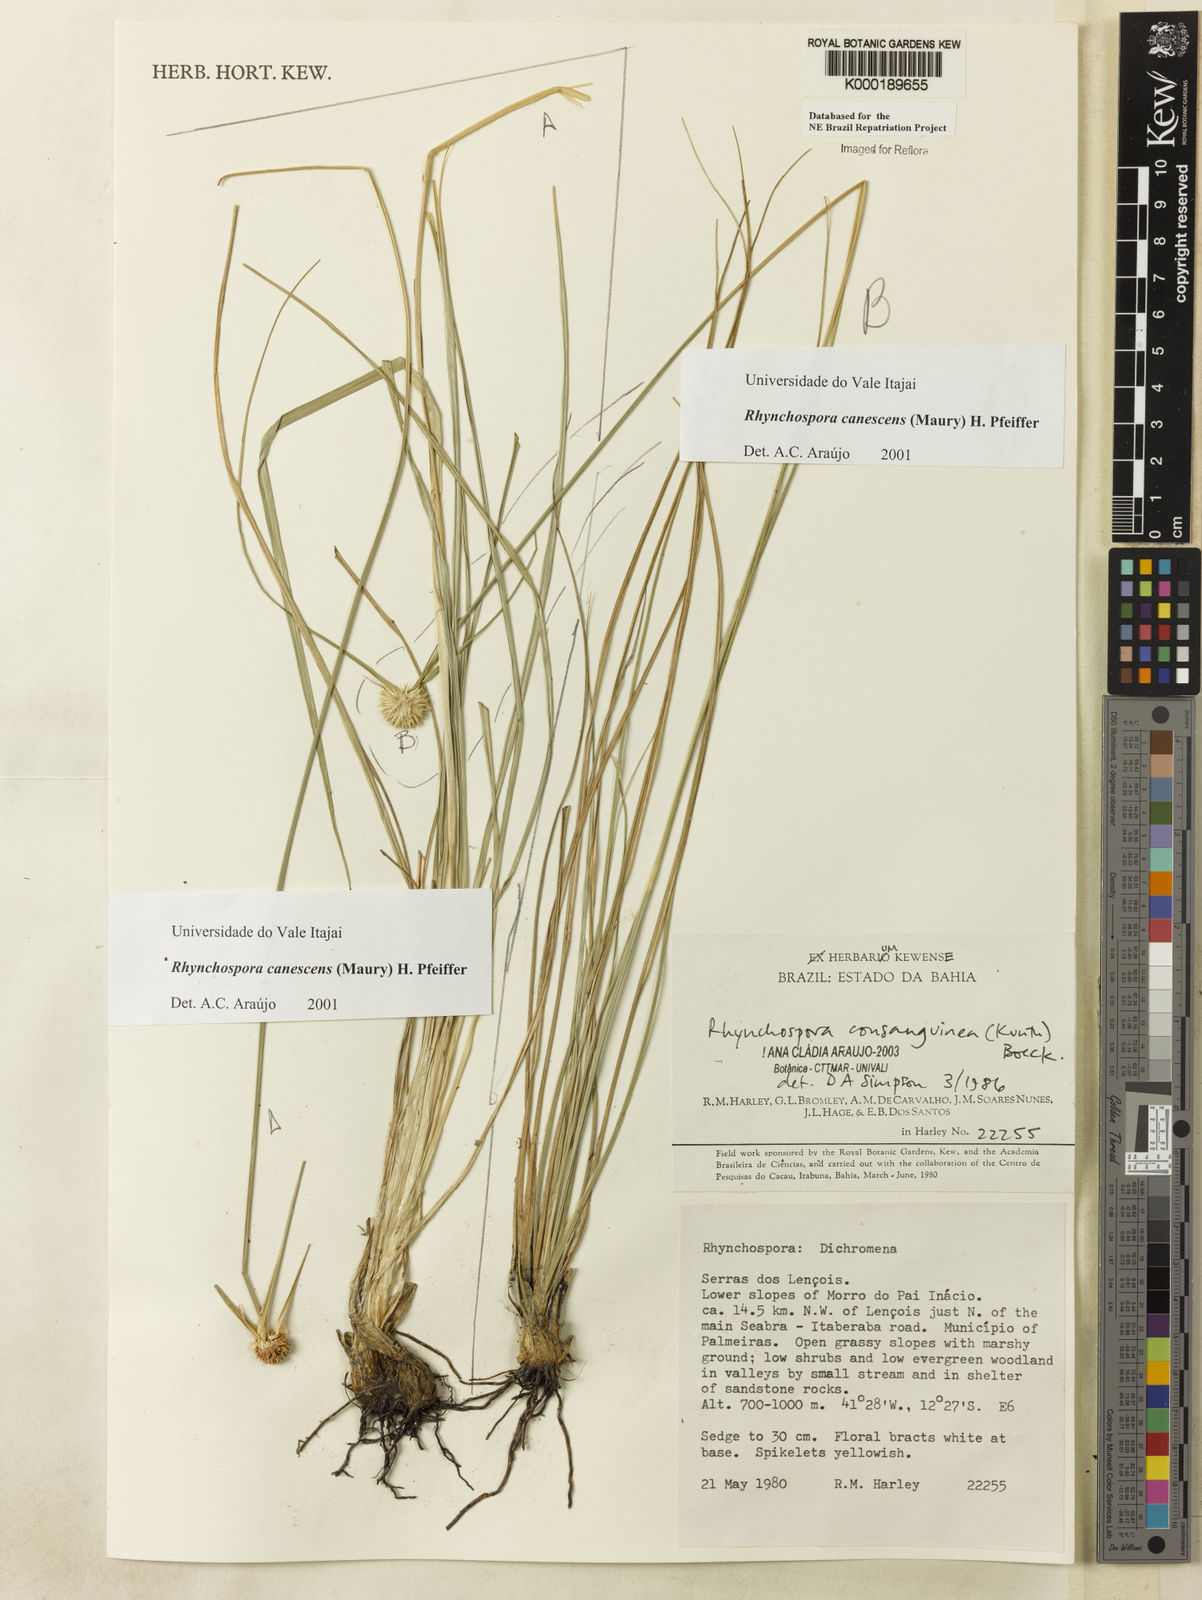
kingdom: Plantae
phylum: Tracheophyta
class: Liliopsida
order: Poales
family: Cyperaceae
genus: Rhynchospora
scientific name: Rhynchospora albiceps
